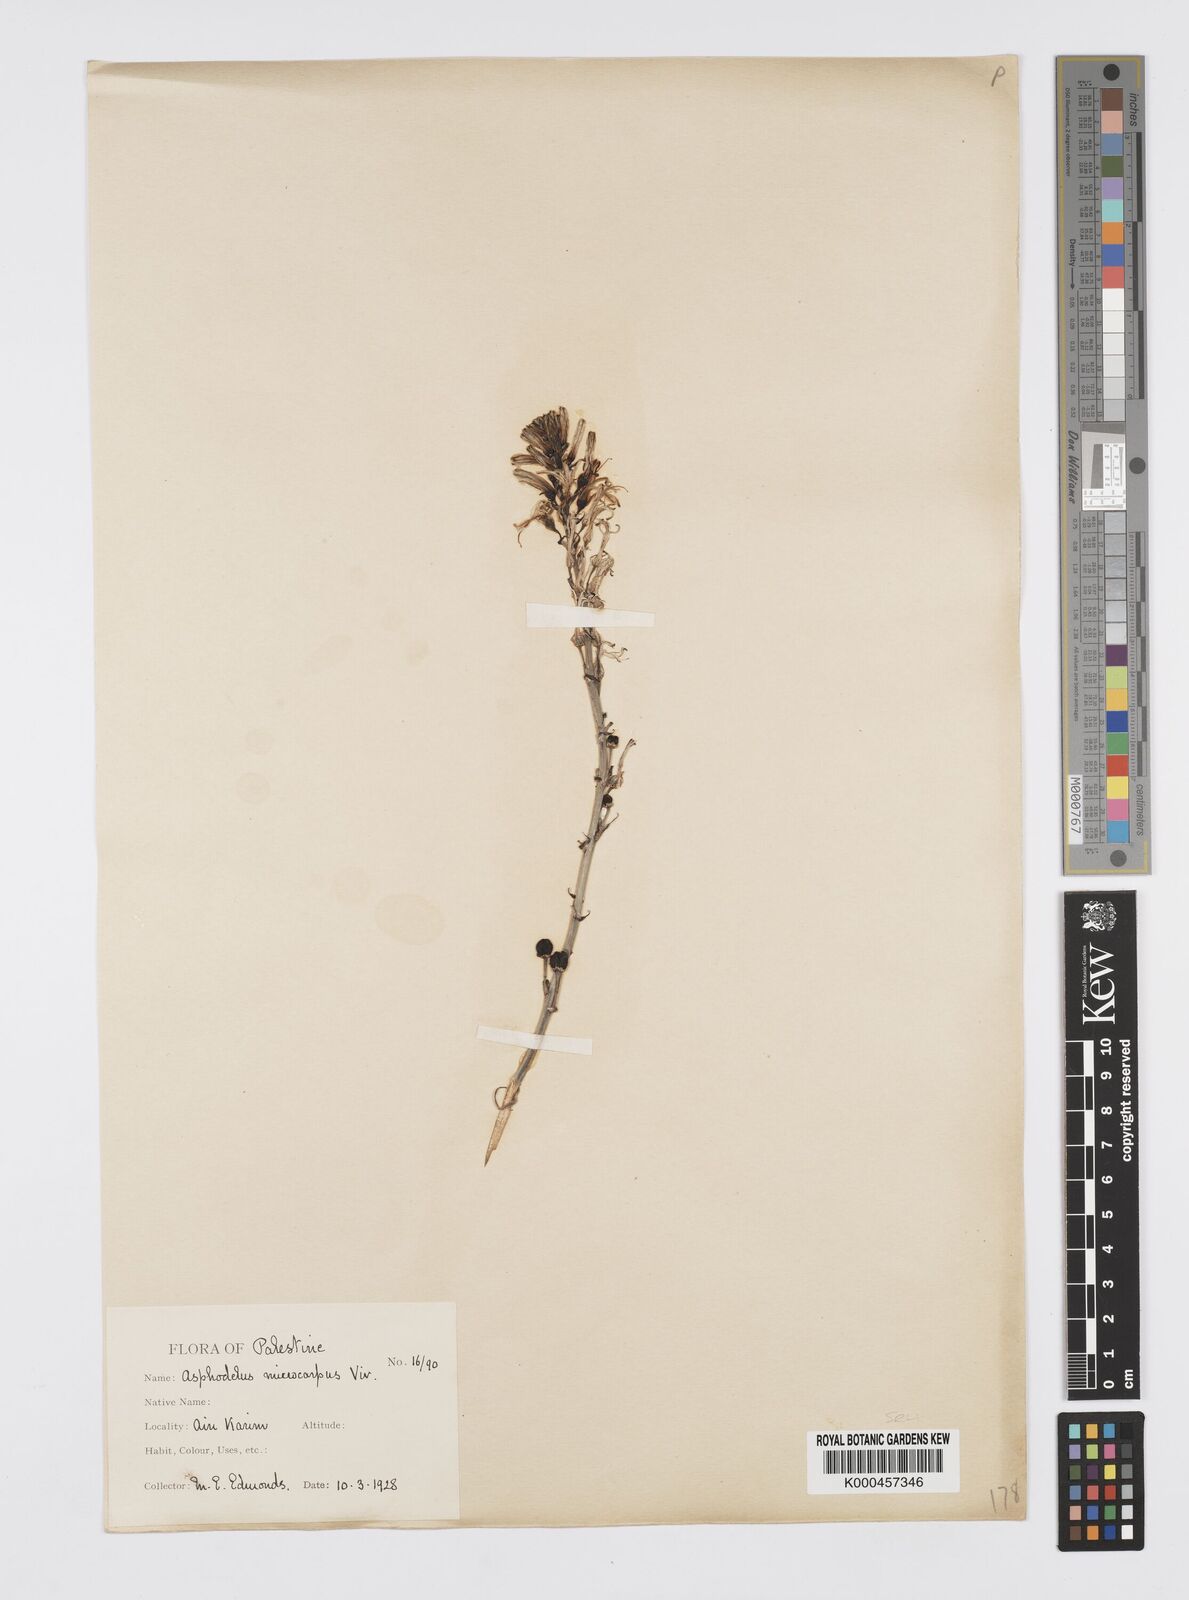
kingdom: Plantae
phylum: Tracheophyta
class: Liliopsida
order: Asparagales
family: Asphodelaceae
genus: Asphodelus
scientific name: Asphodelus aestivus
